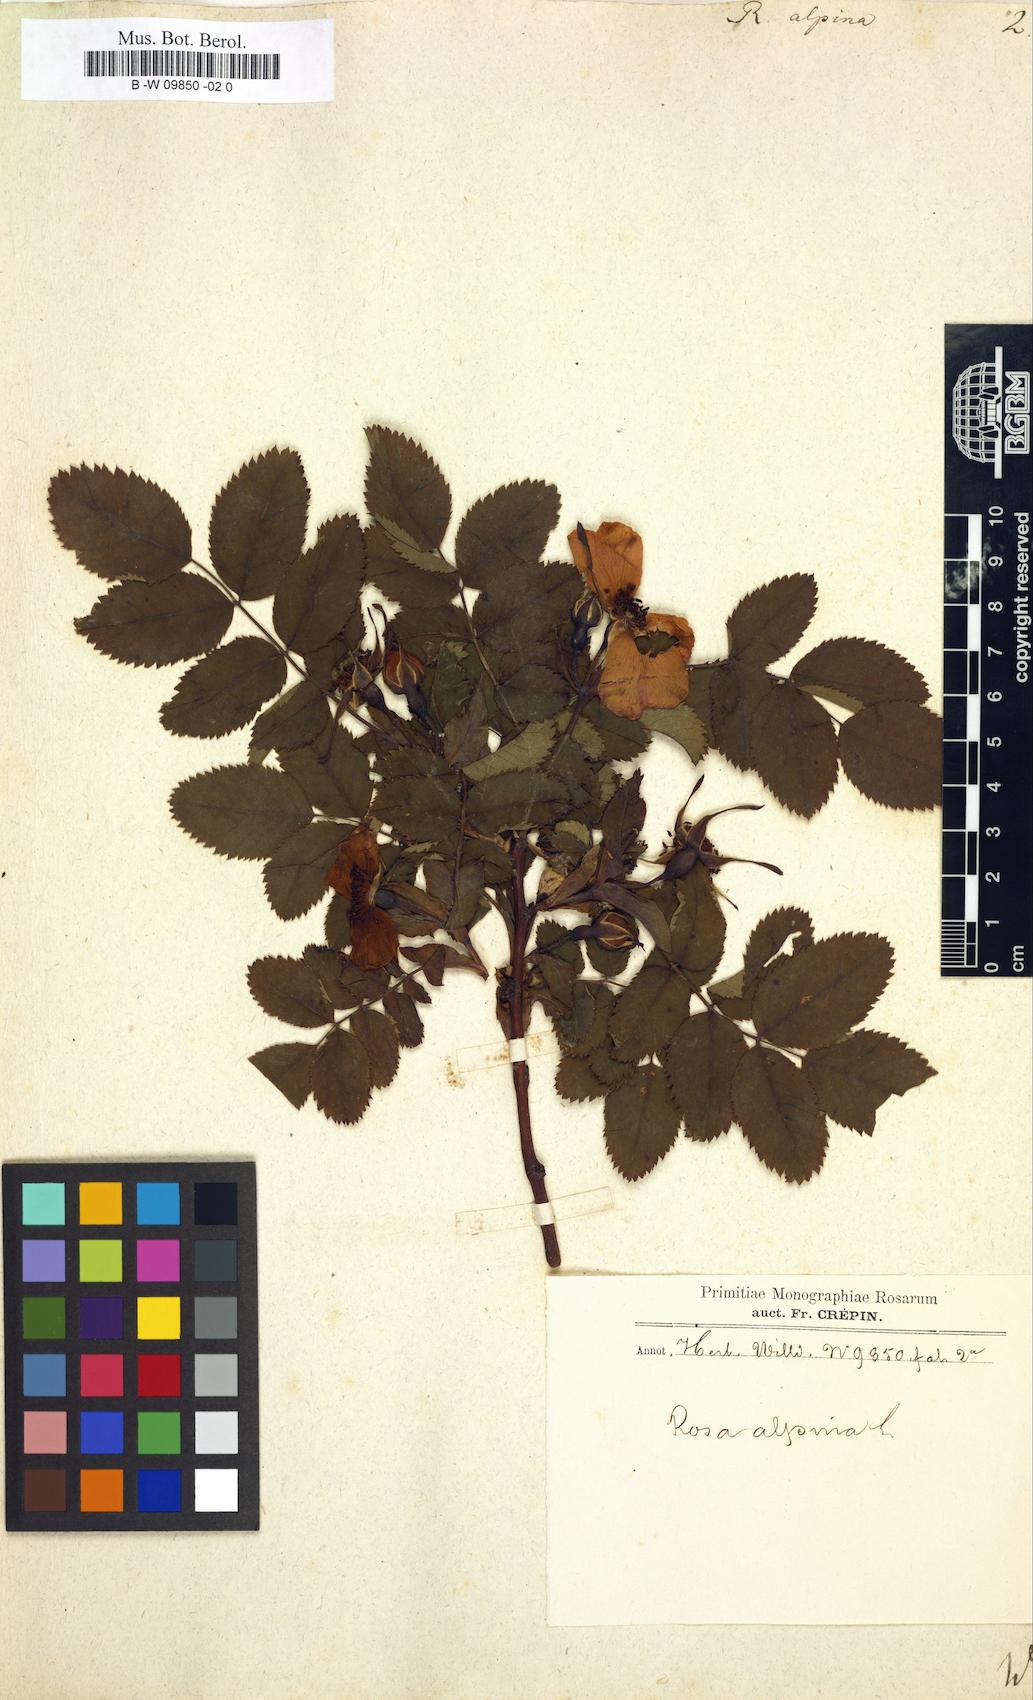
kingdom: Plantae
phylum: Tracheophyta
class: Magnoliopsida
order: Rosales
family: Rosaceae
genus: Rosa
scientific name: Rosa pendulina
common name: Alpine rose
